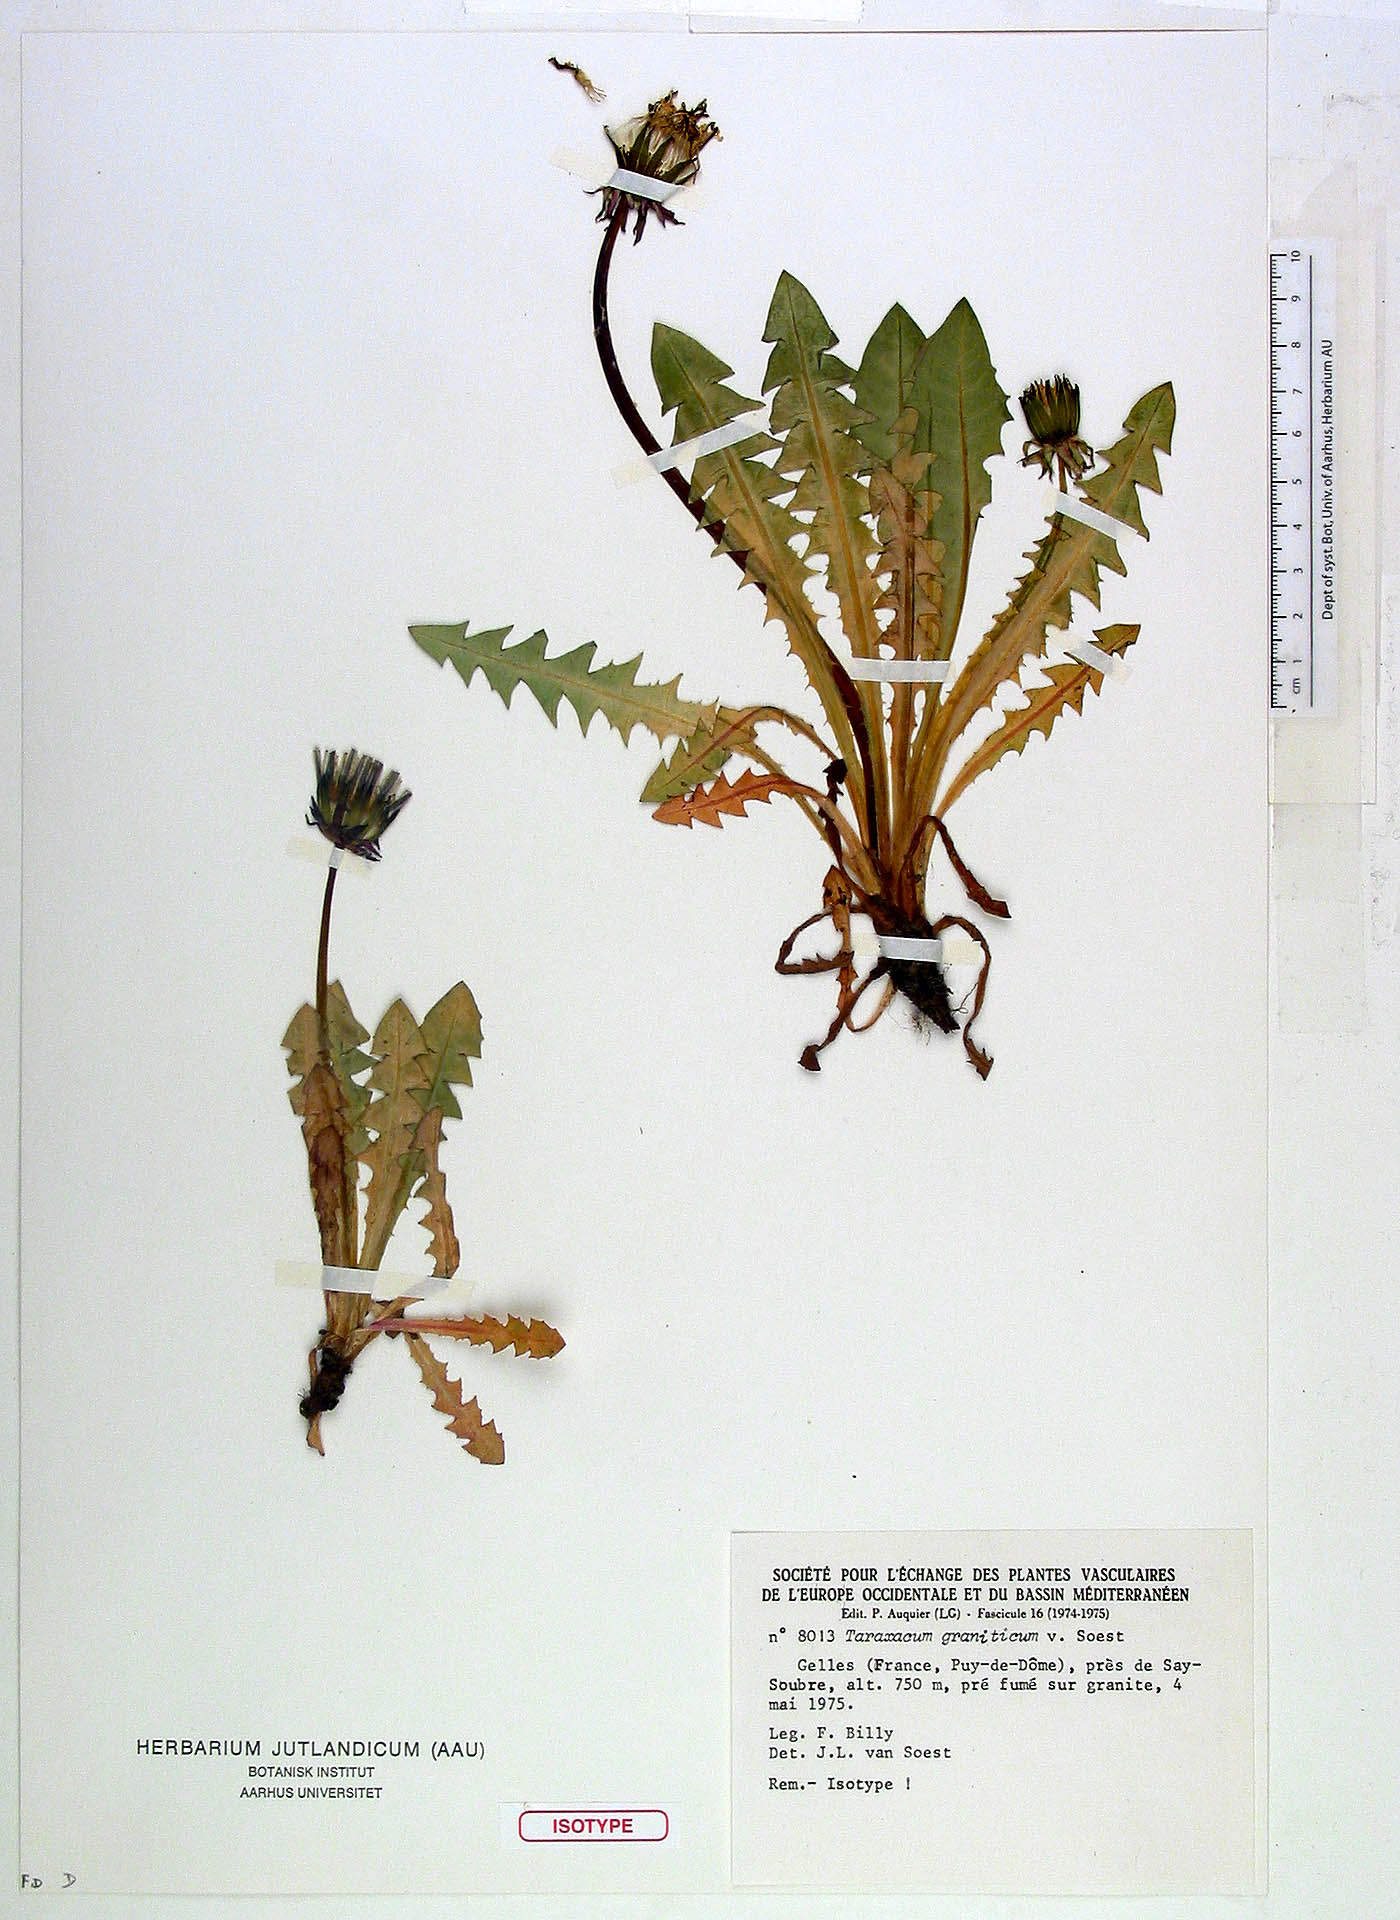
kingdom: Plantae
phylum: Tracheophyta
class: Magnoliopsida
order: Asterales
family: Asteraceae
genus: Taraxacum
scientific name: Taraxacum graniticum
